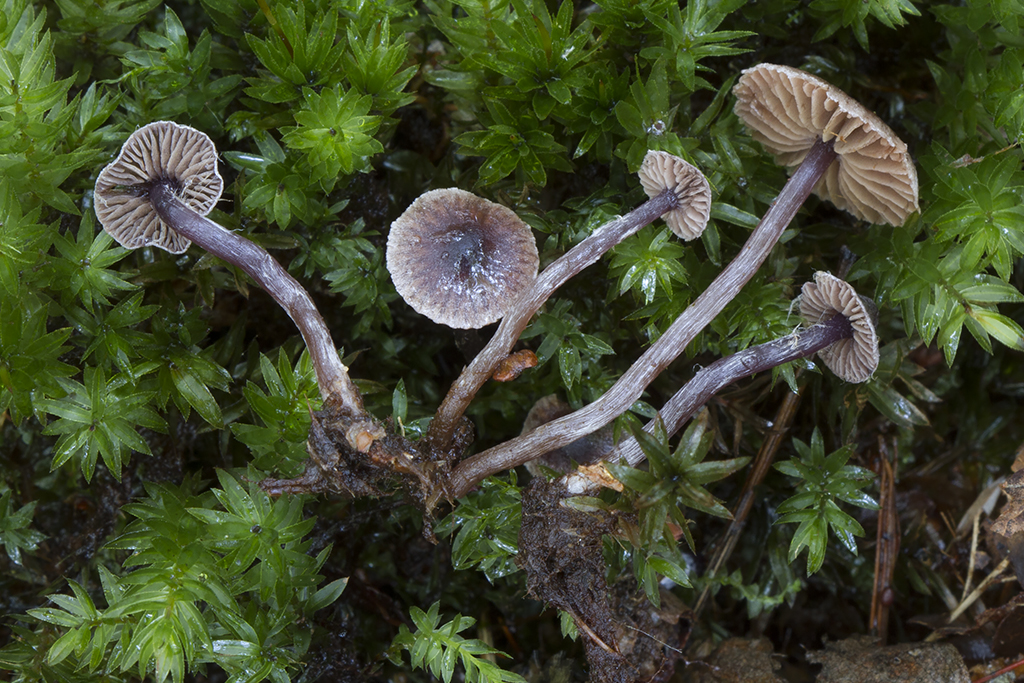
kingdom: Fungi
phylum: Basidiomycota
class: Agaricomycetes
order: Agaricales
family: Cortinariaceae
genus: Cortinarius
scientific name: Cortinarius americanus
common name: natsort slørhat
